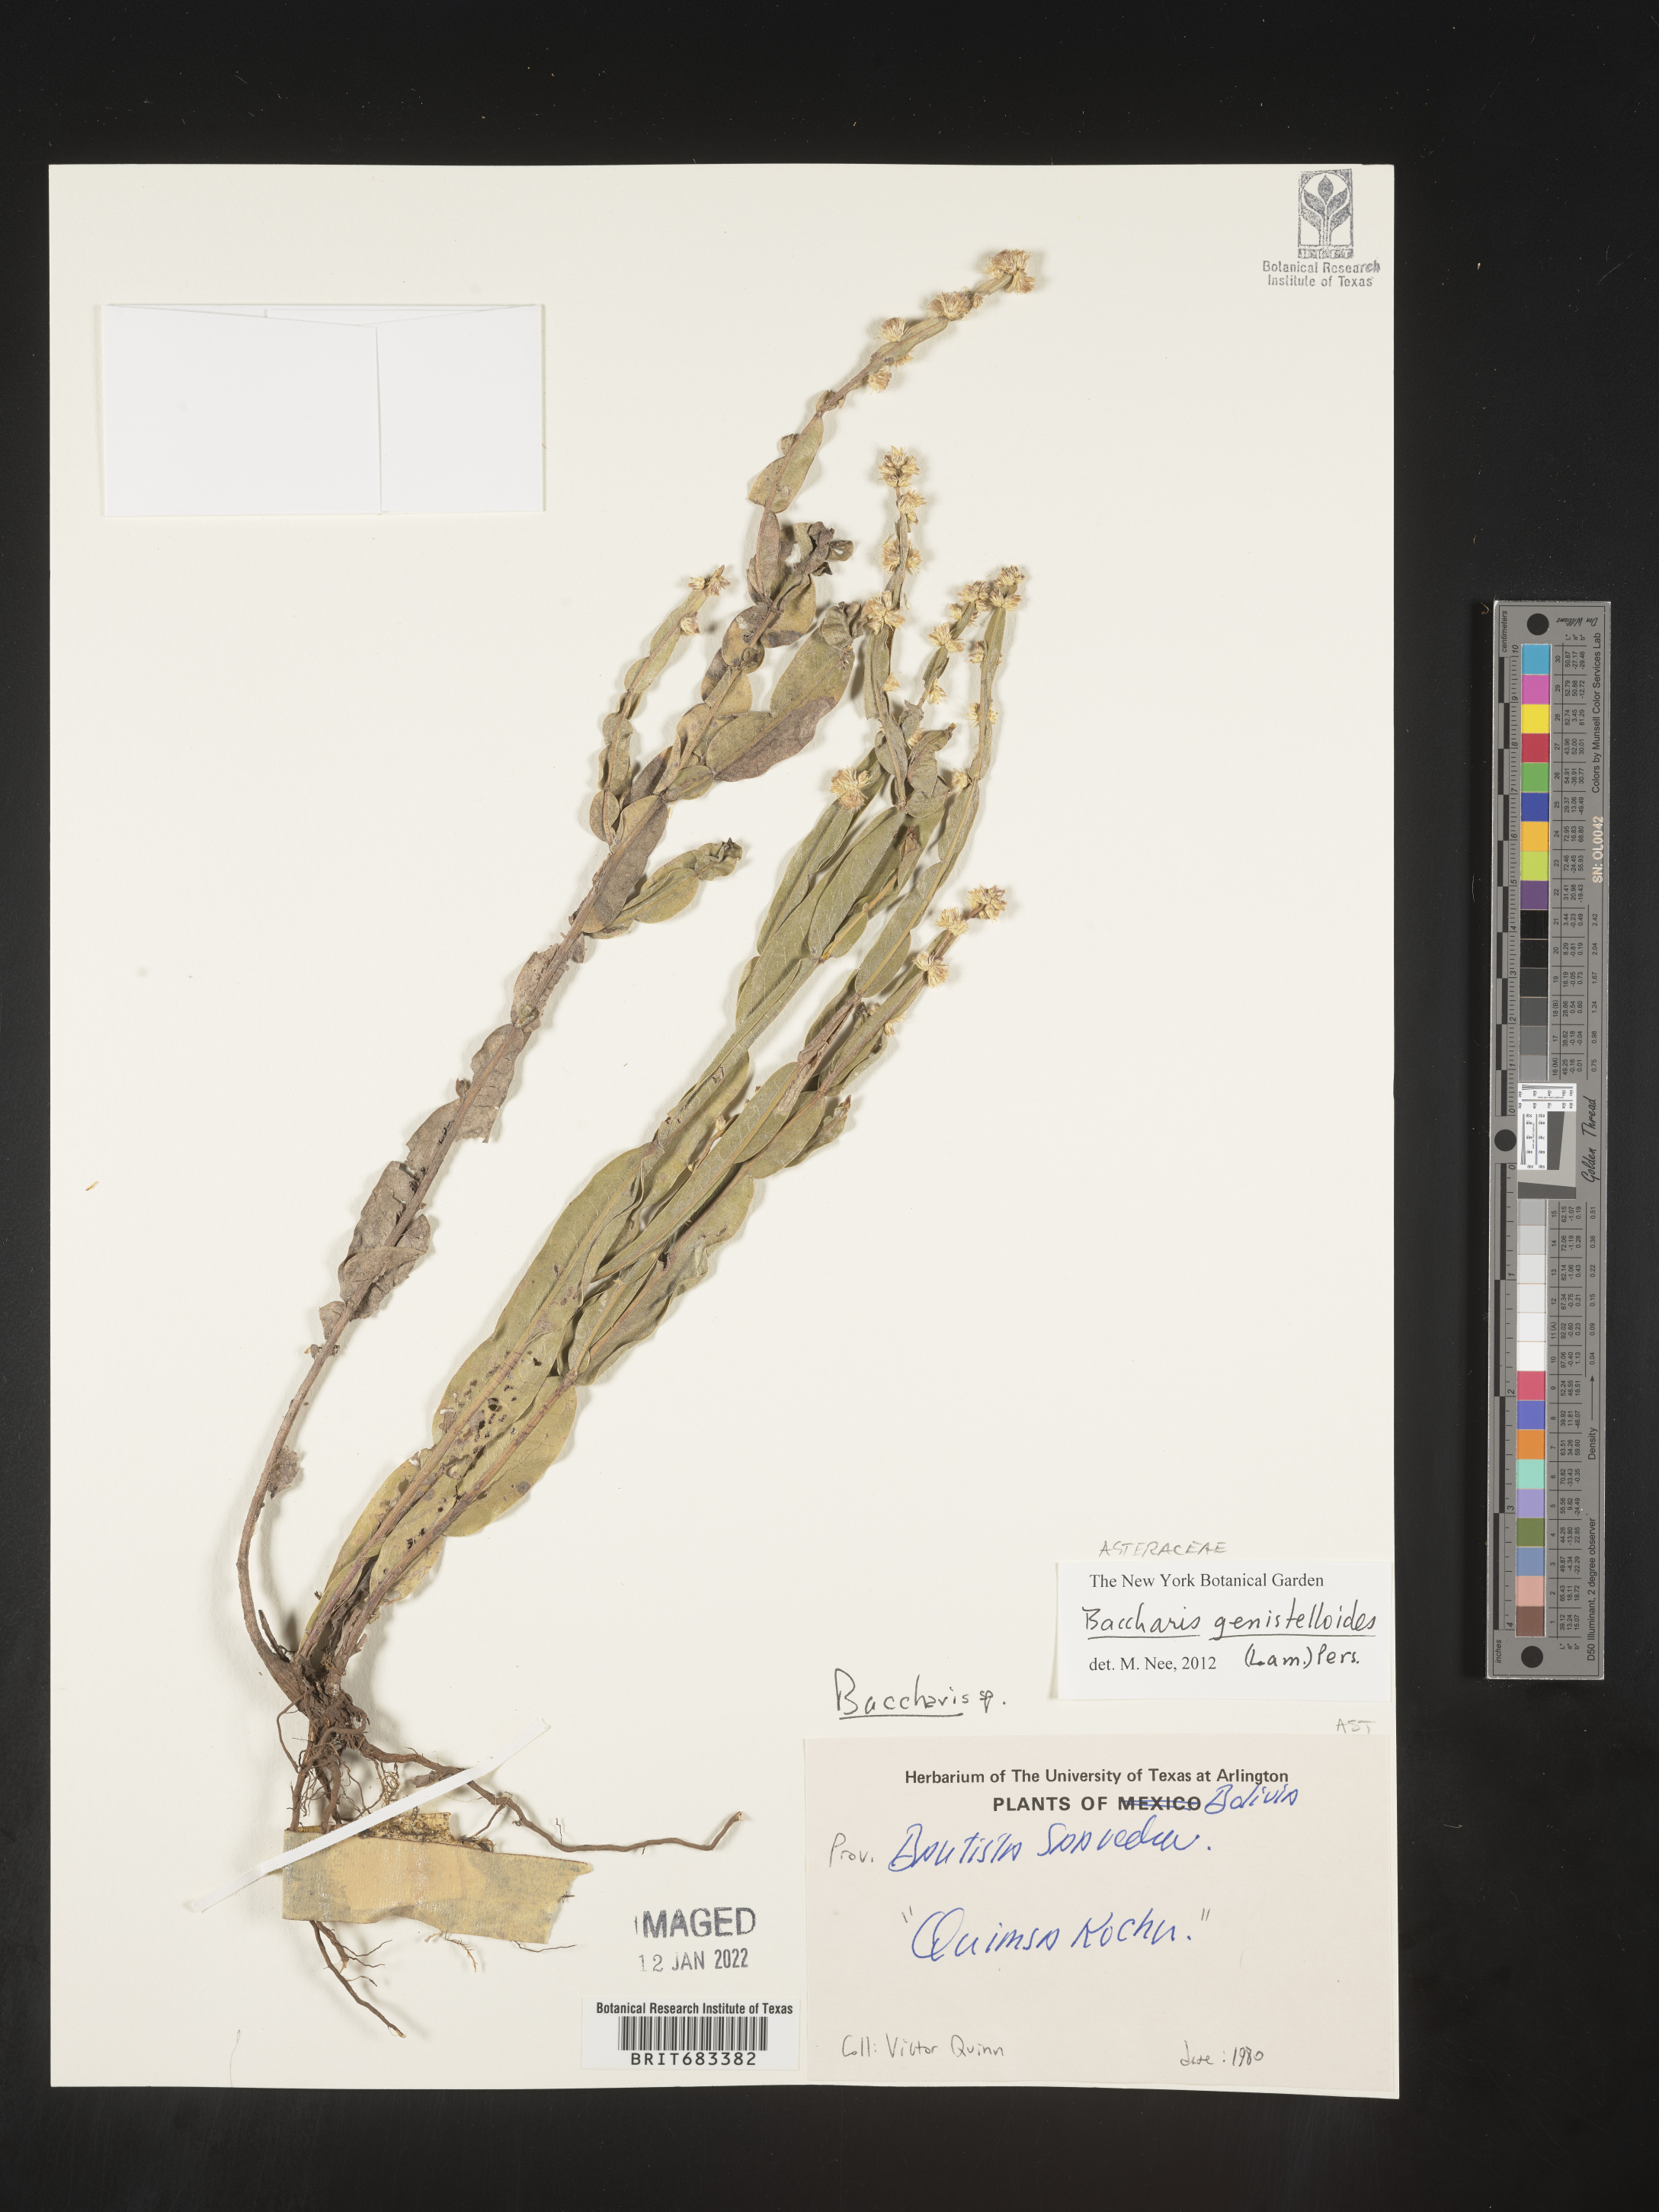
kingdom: Plantae
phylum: Tracheophyta
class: Magnoliopsida
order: Asterales
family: Asteraceae
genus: Baccharis
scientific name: Baccharis
